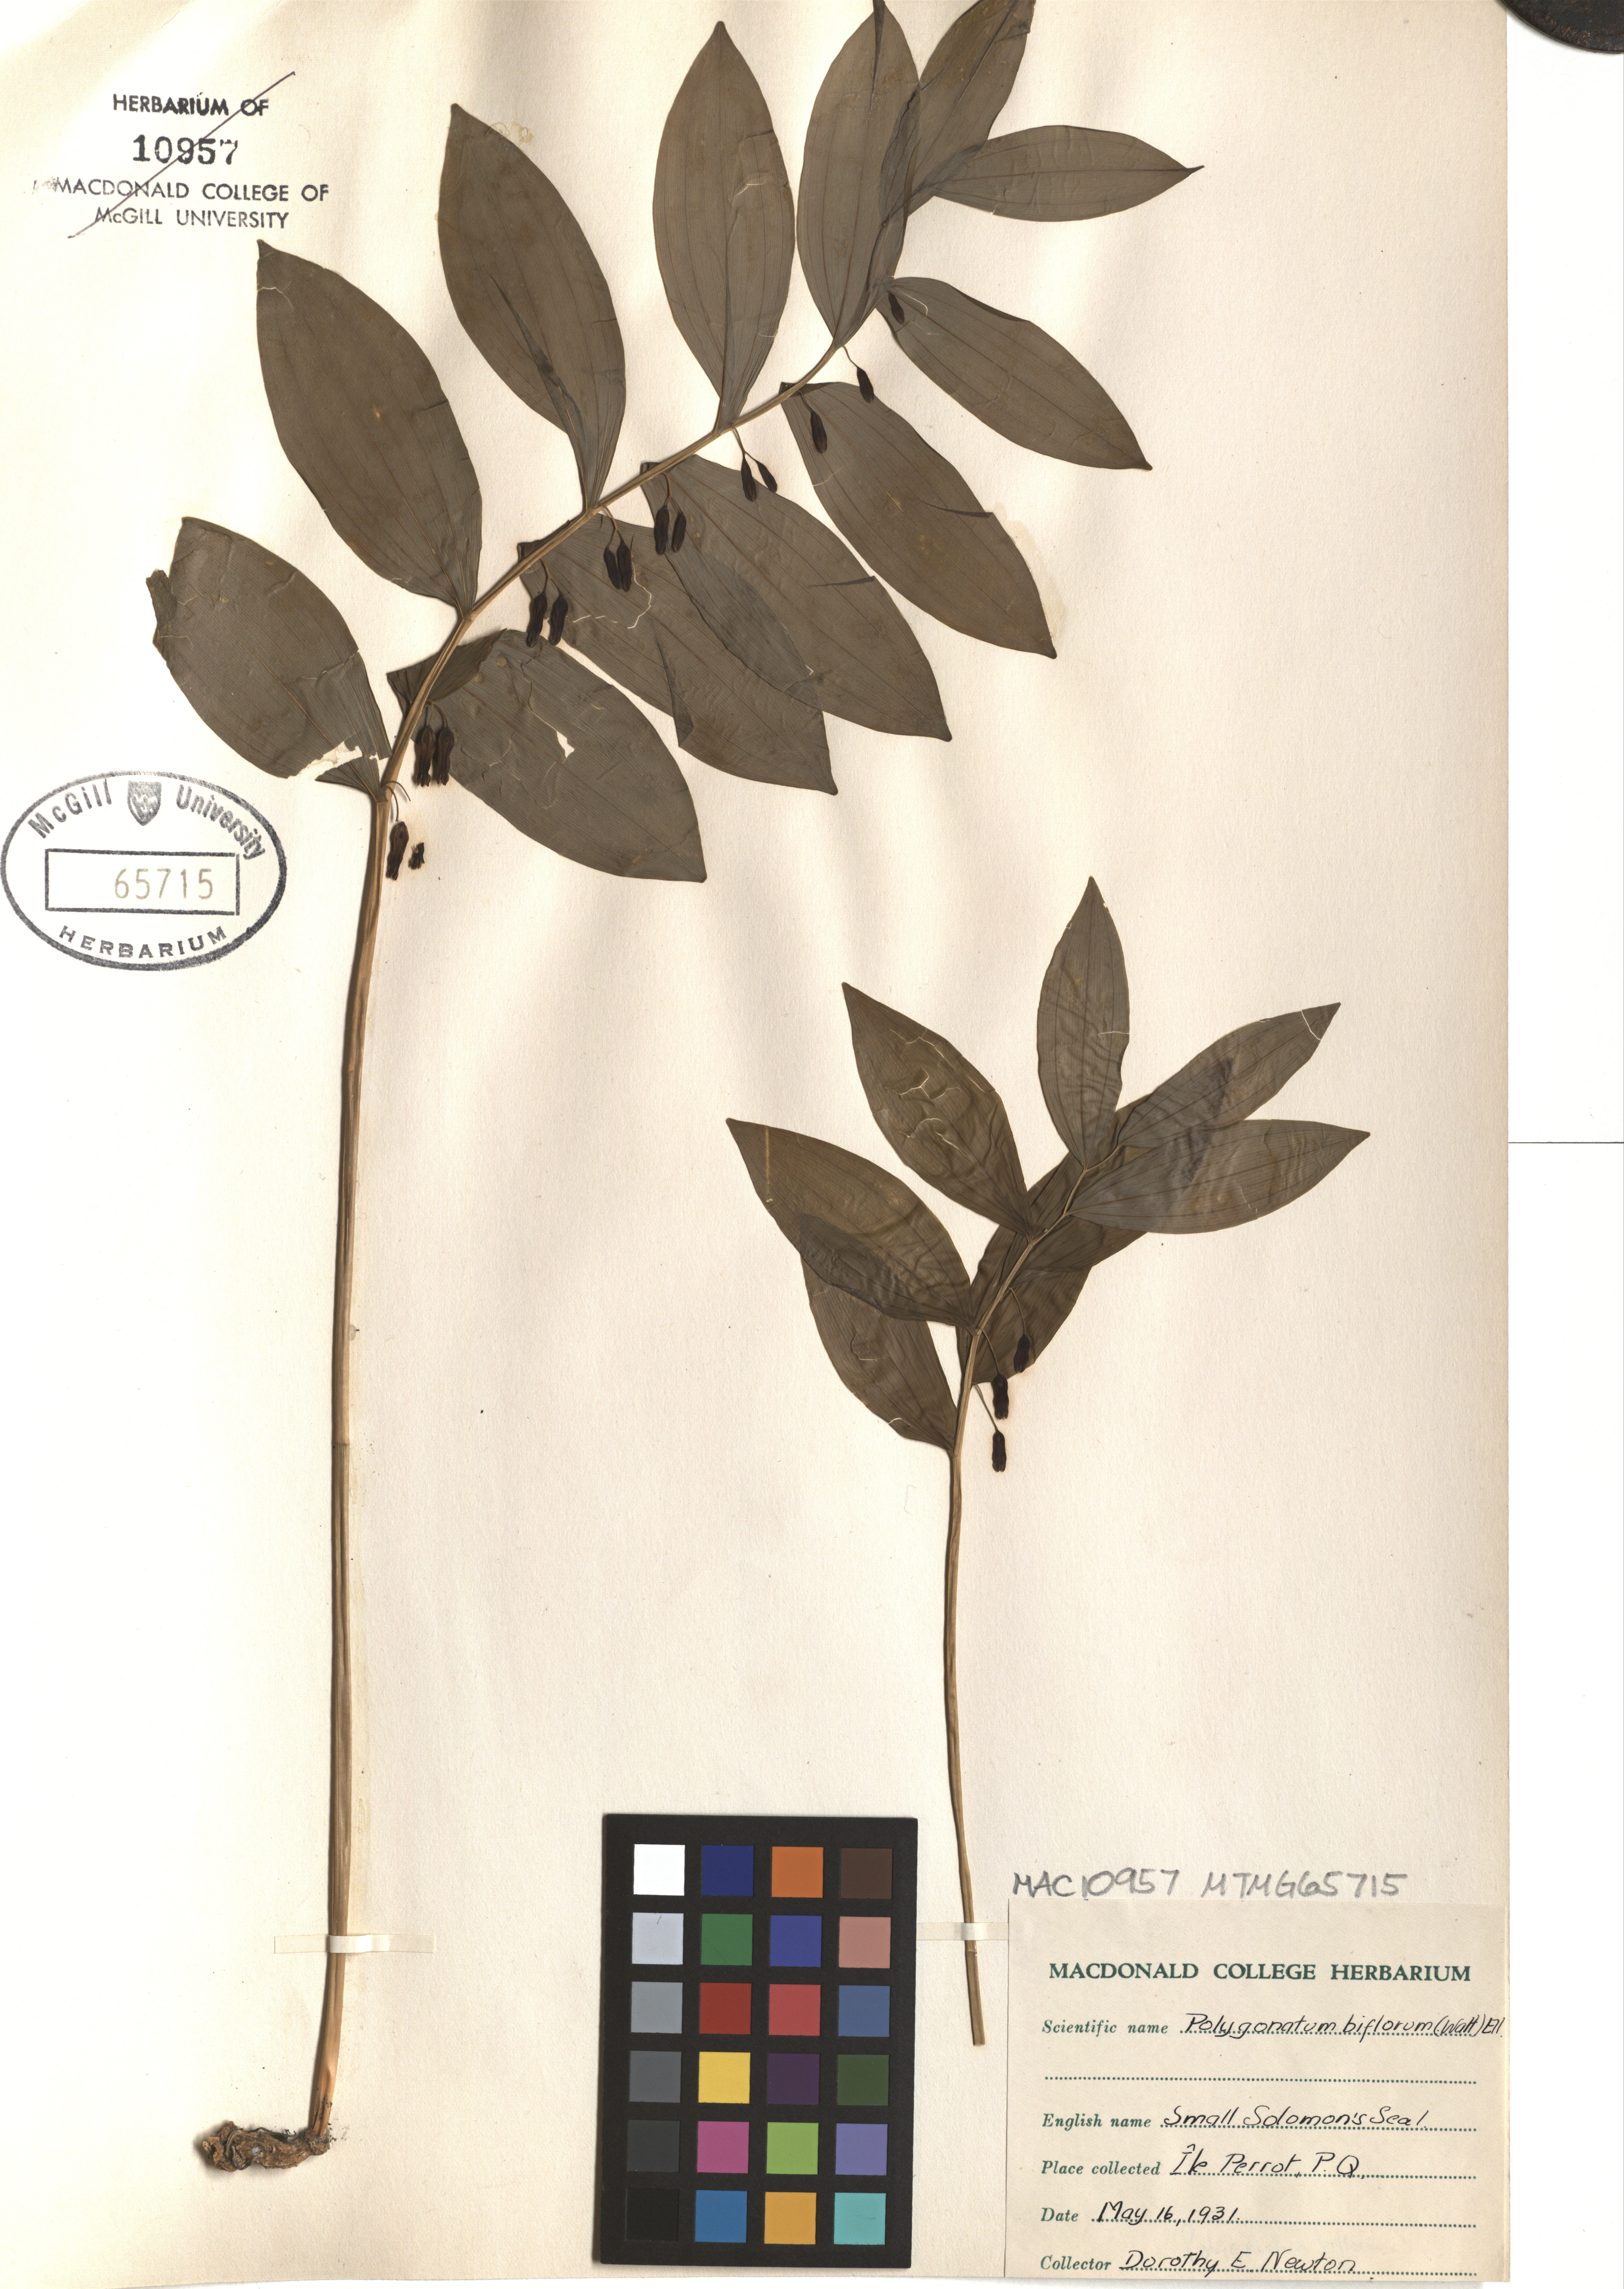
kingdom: Plantae
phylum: Tracheophyta
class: Liliopsida
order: Asparagales
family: Asparagaceae
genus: Polygonatum
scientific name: Polygonatum biflorum
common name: American solomon's-seal
